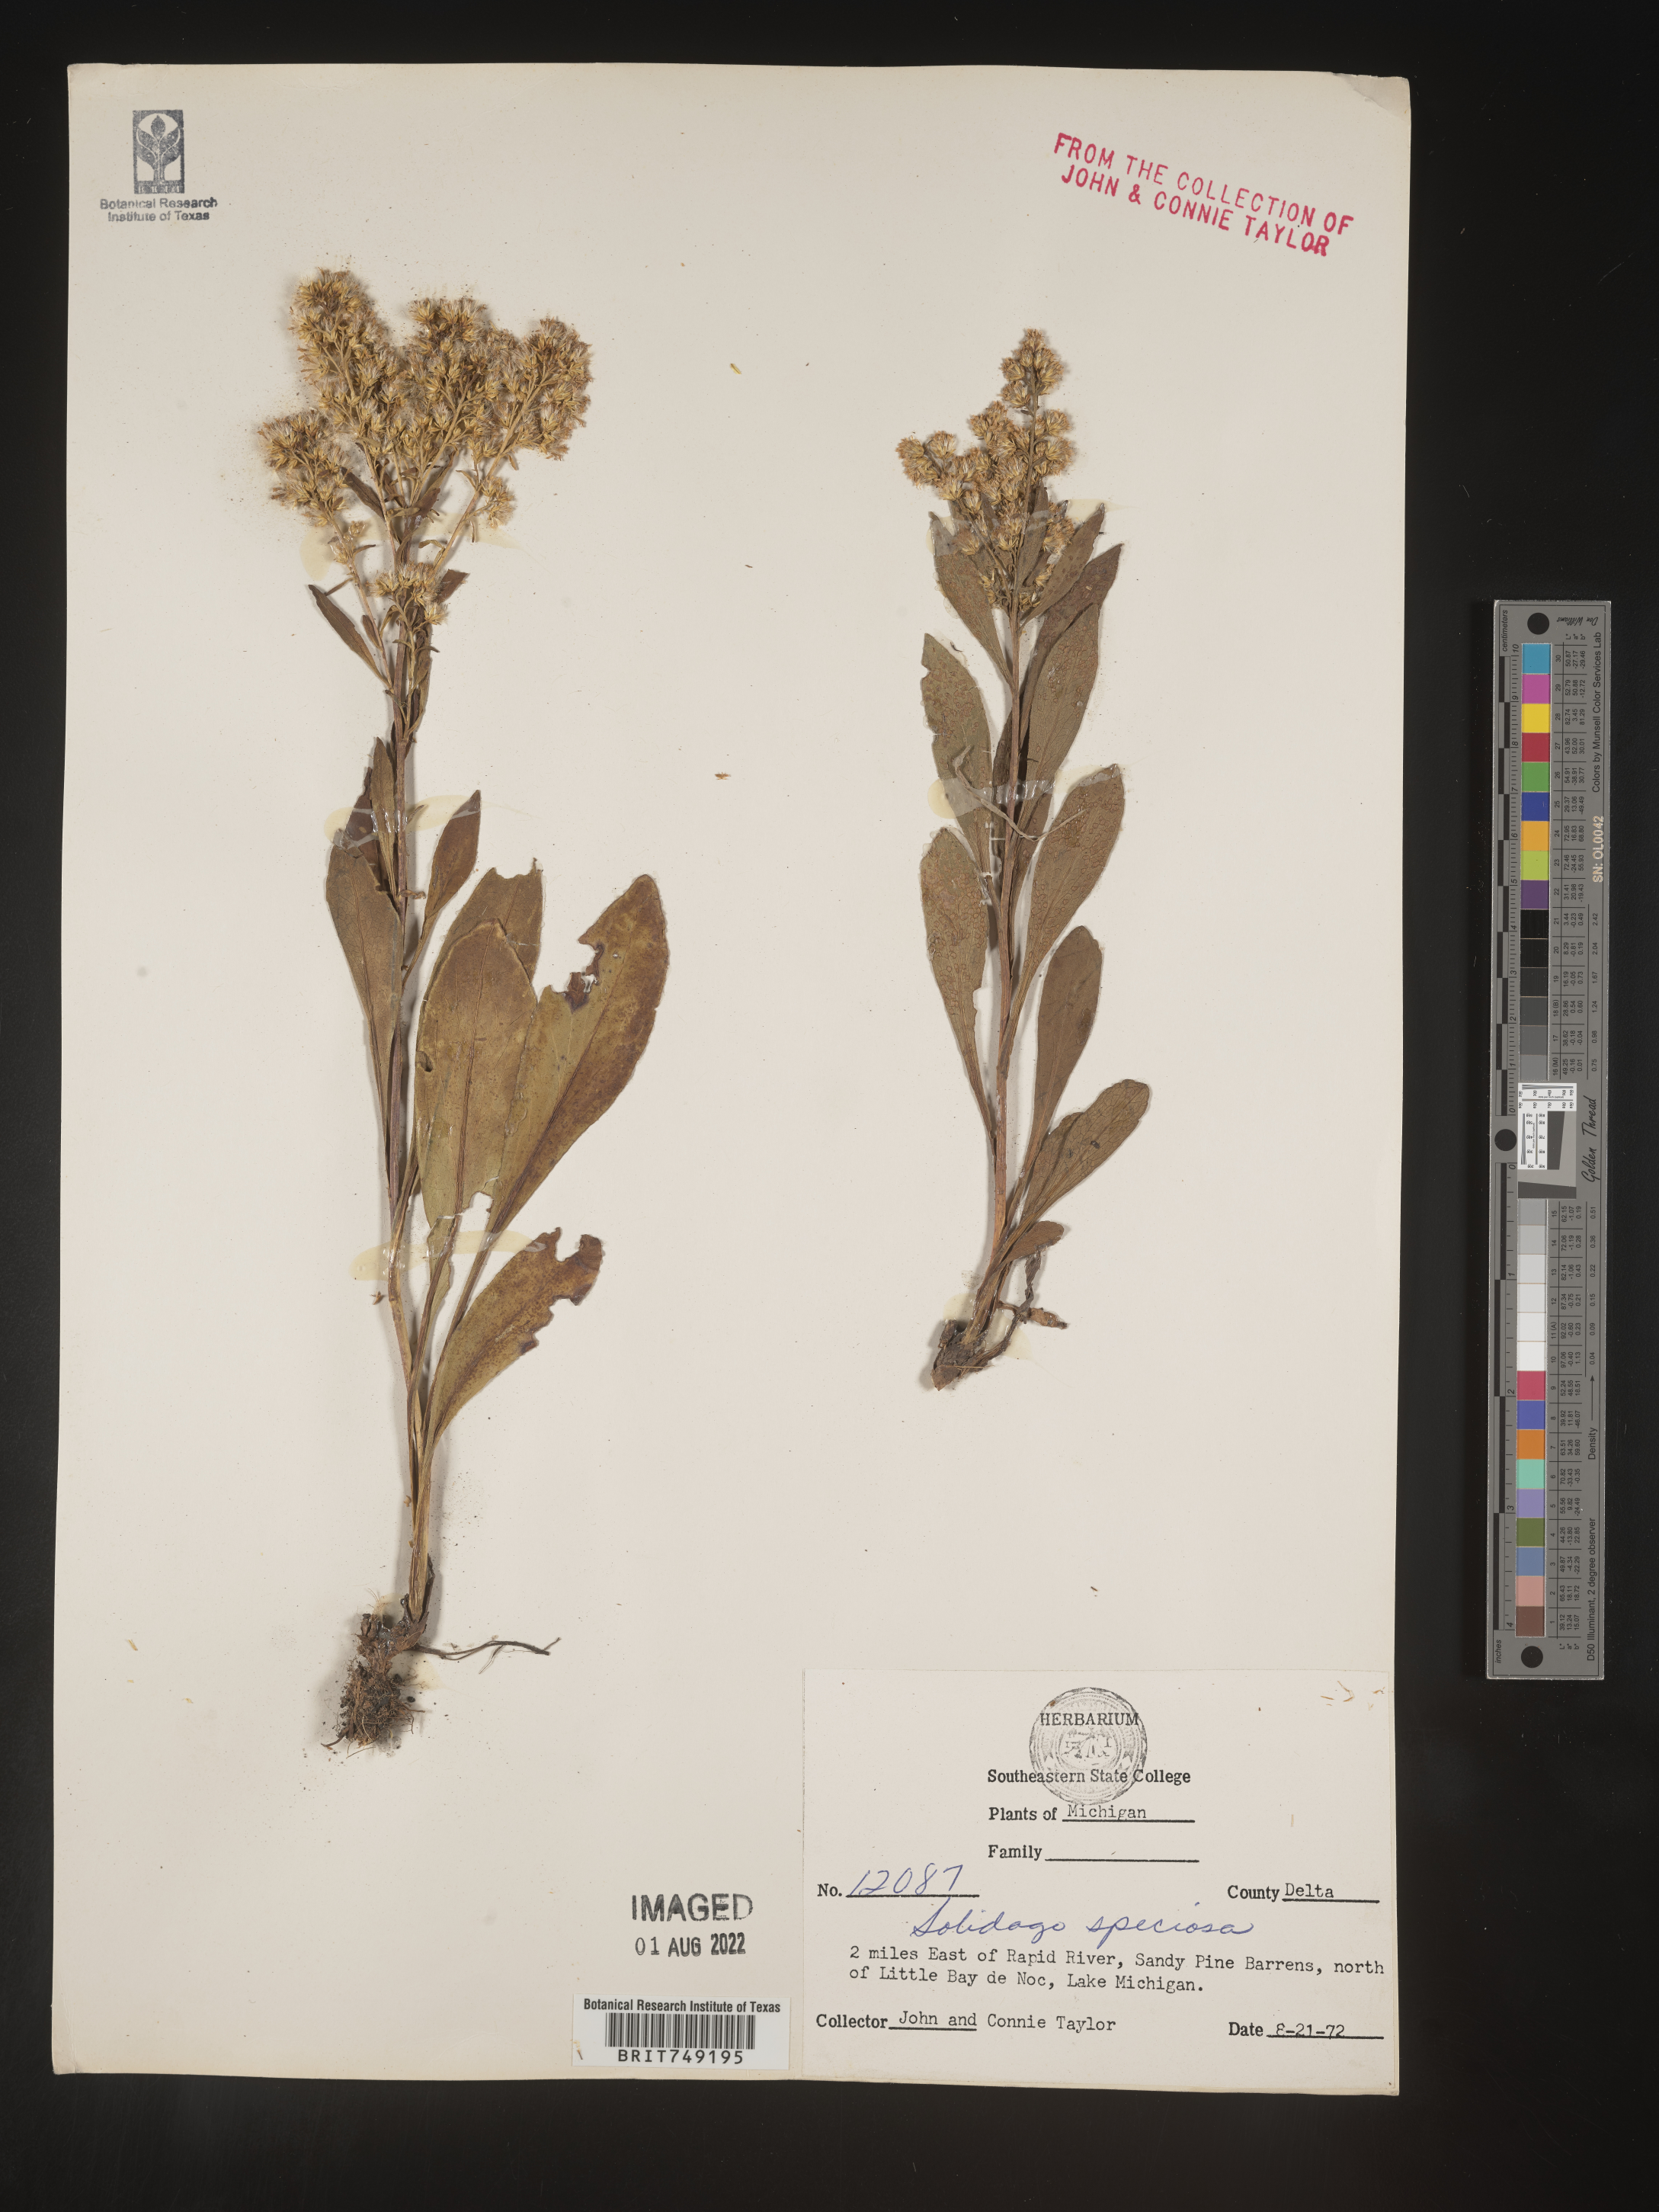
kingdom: Plantae
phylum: Tracheophyta
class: Magnoliopsida
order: Asterales
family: Asteraceae
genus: Solidago
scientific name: Solidago speciosa
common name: Showy goldenrod
